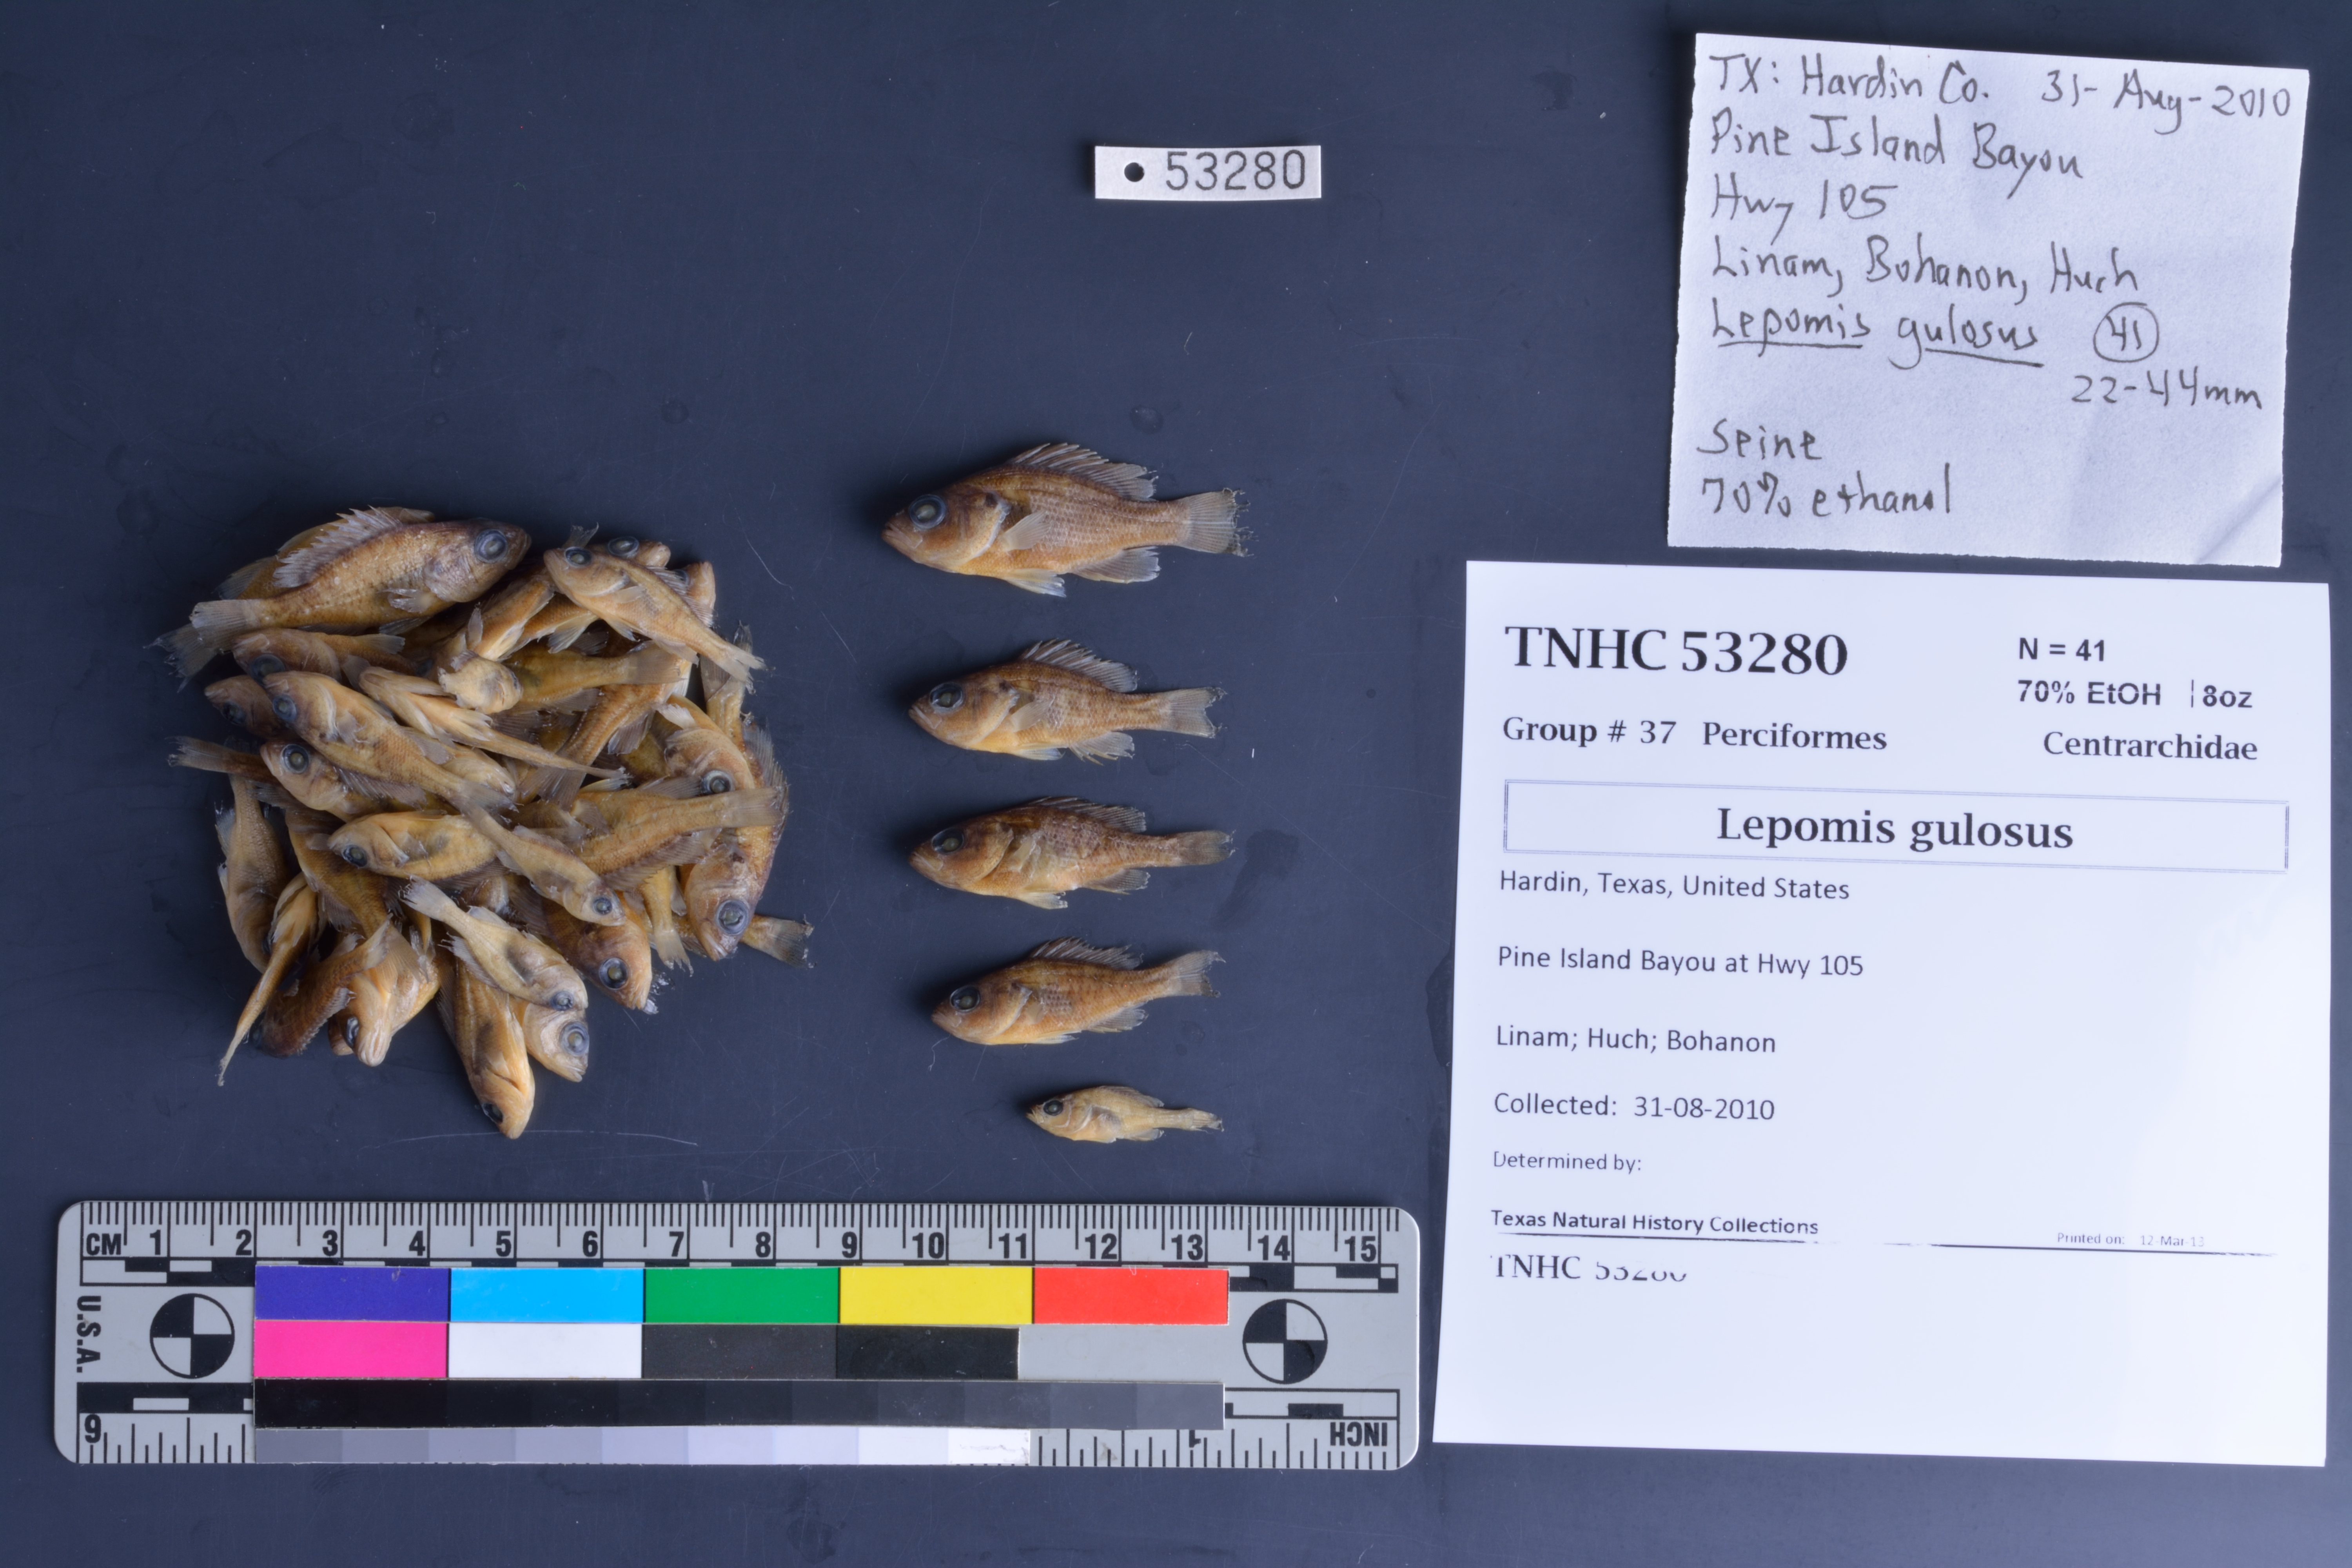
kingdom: Animalia
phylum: Chordata
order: Perciformes
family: Centrarchidae
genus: Lepomis
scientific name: Lepomis gulosus
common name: Warmouth
